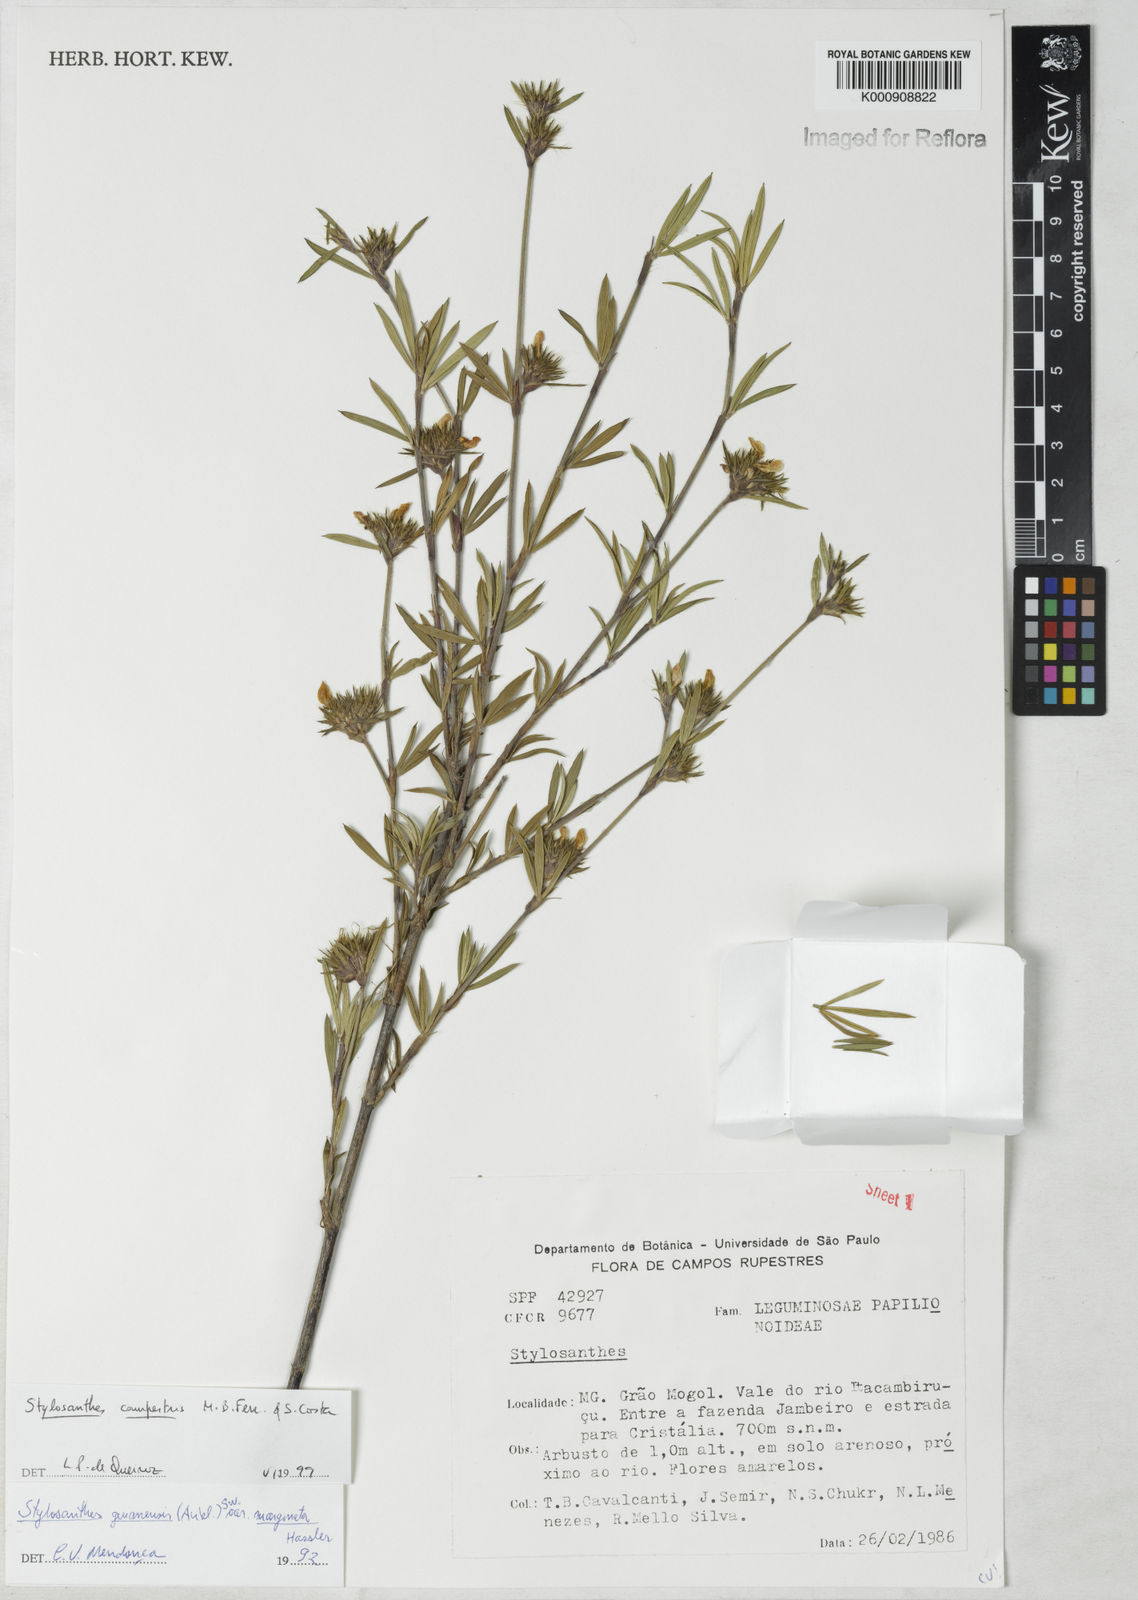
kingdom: Plantae
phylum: Tracheophyta
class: Magnoliopsida
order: Fabales
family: Fabaceae
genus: Stylosanthes
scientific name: Stylosanthes campestris
